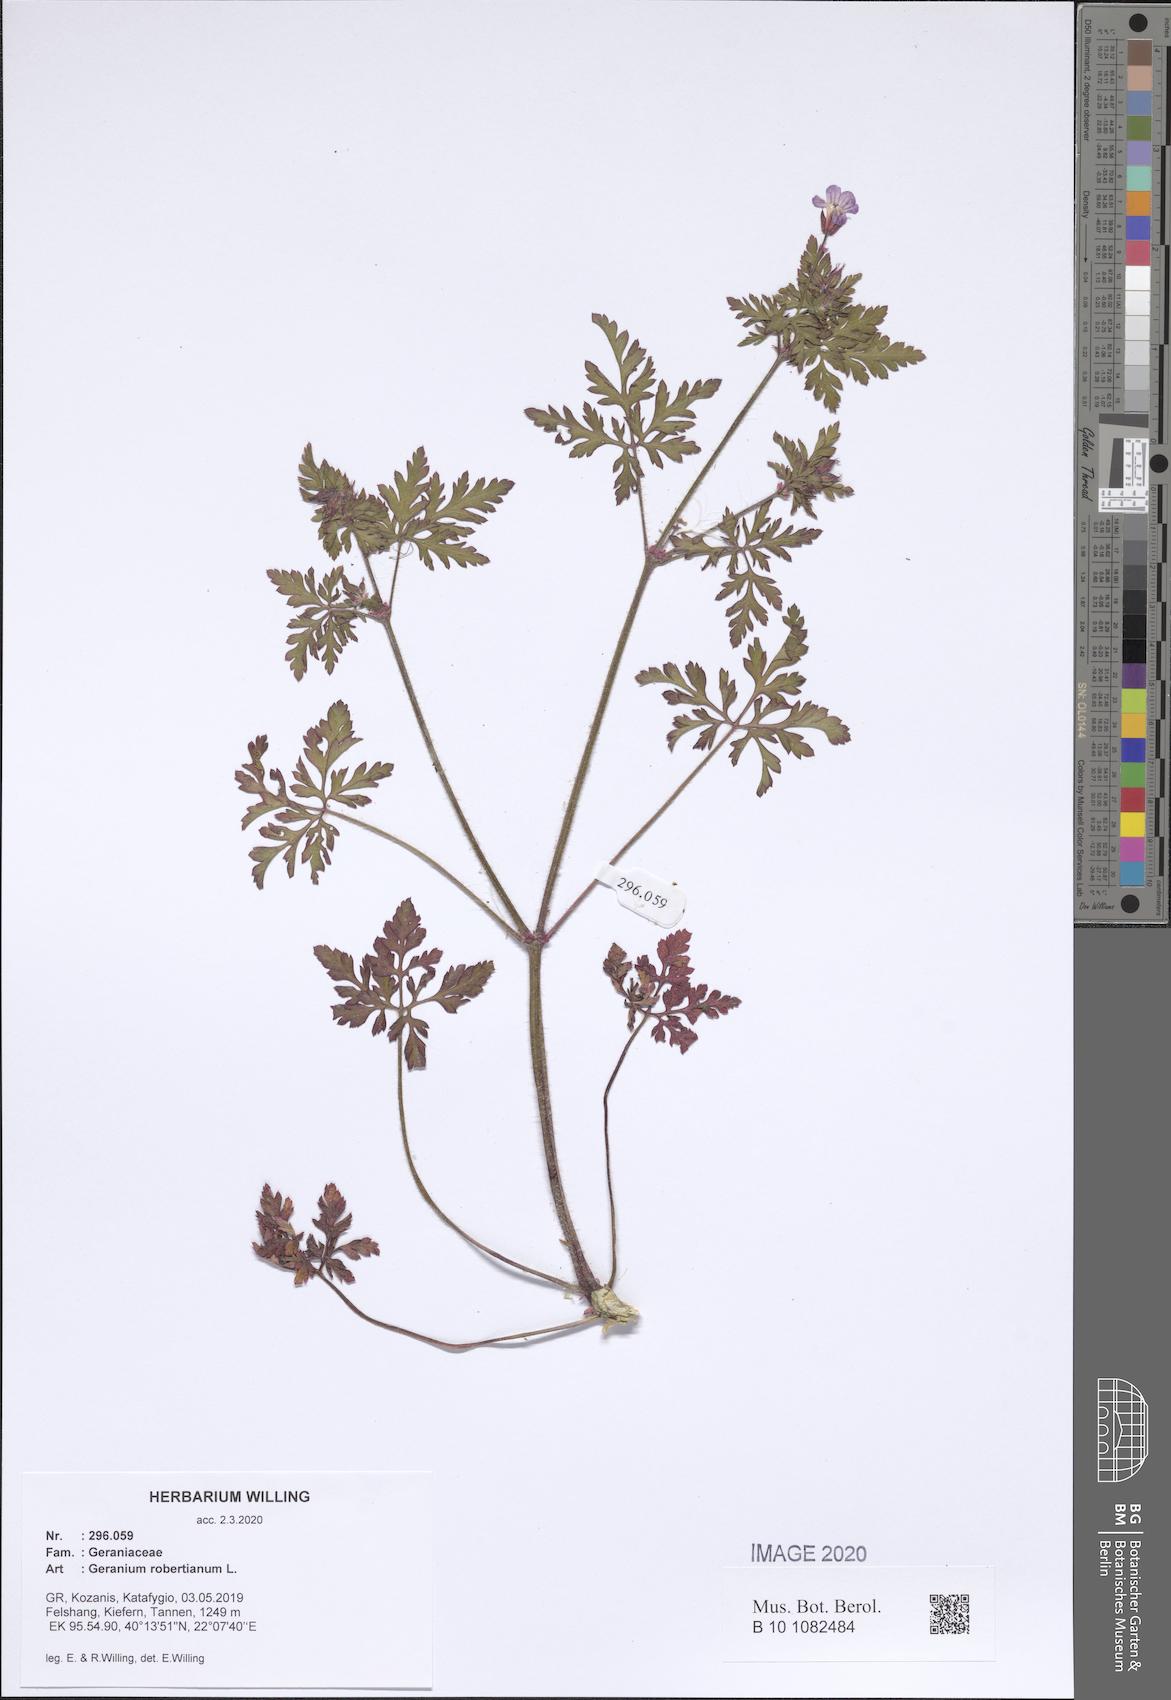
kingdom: Plantae
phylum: Tracheophyta
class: Magnoliopsida
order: Geraniales
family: Geraniaceae
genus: Geranium
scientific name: Geranium robertianum
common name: Herb-robert
